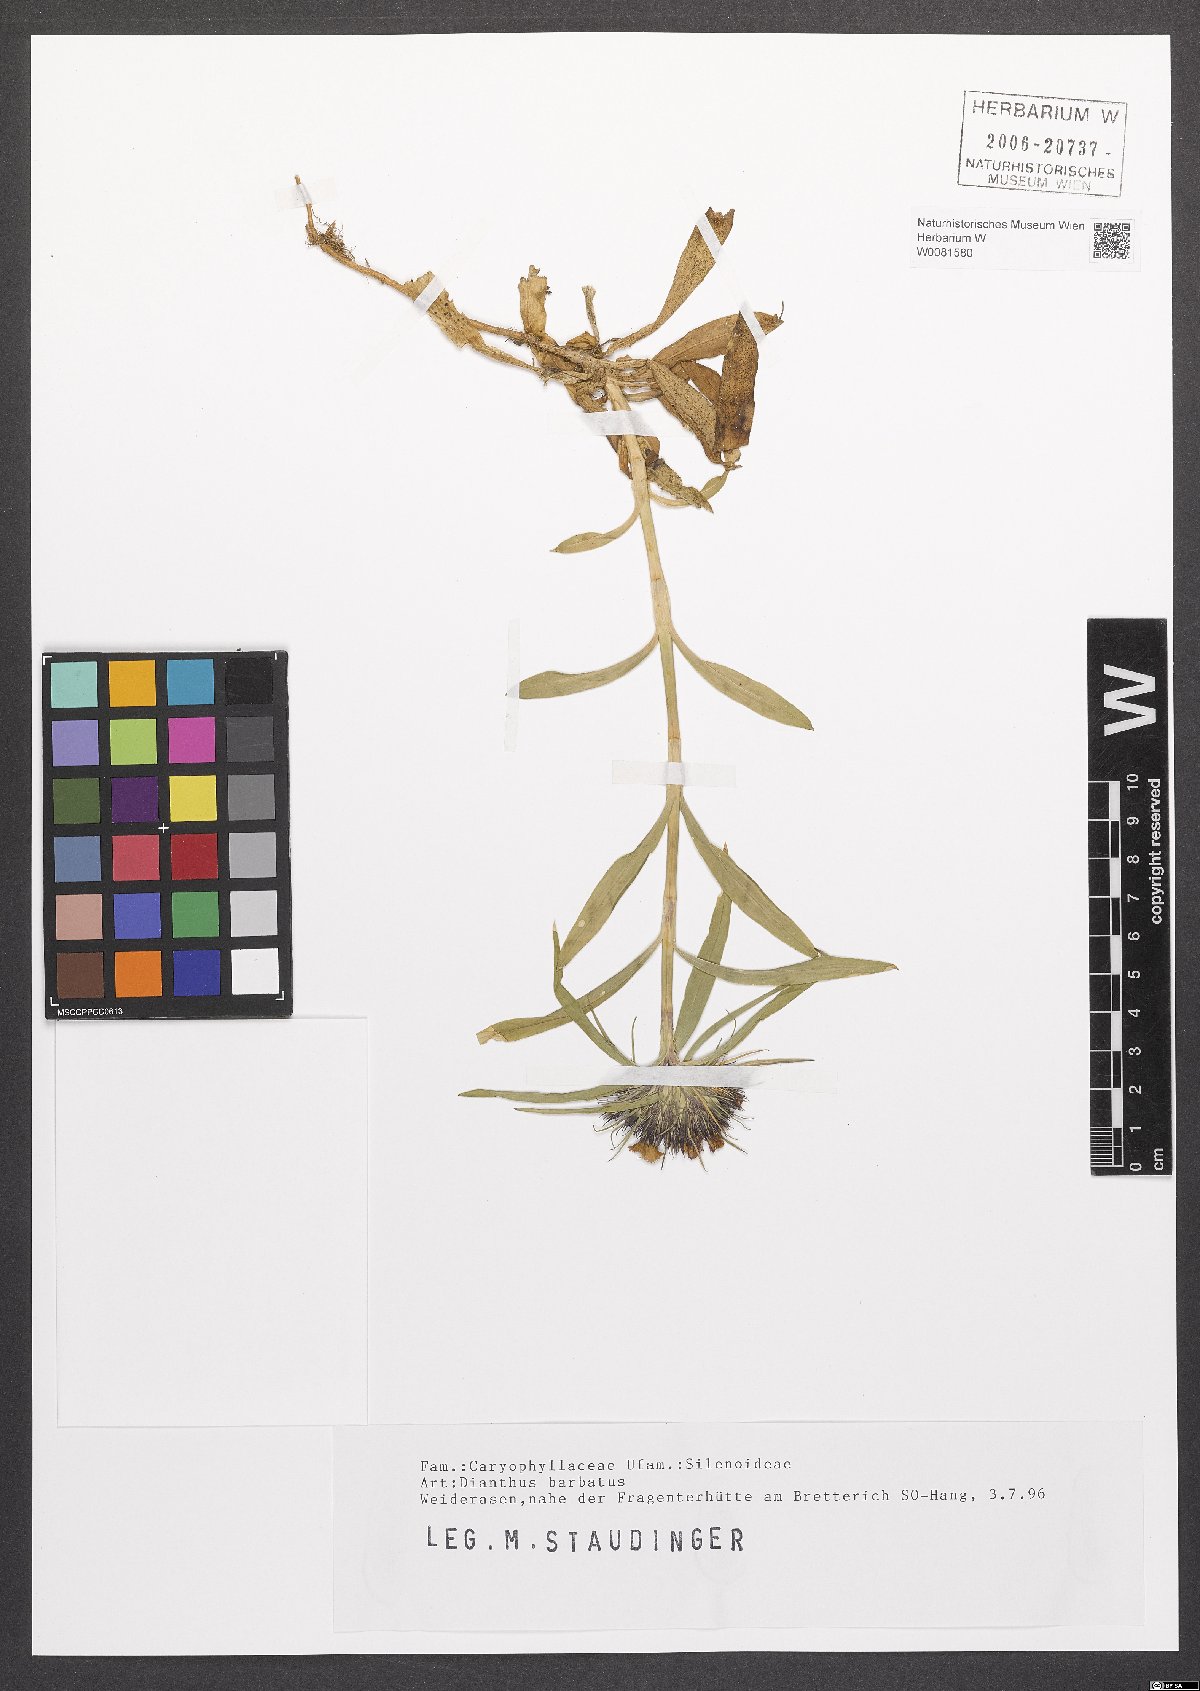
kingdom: Plantae
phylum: Tracheophyta
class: Magnoliopsida
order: Caryophyllales
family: Caryophyllaceae
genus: Dianthus
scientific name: Dianthus barbatus
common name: Sweet-william
